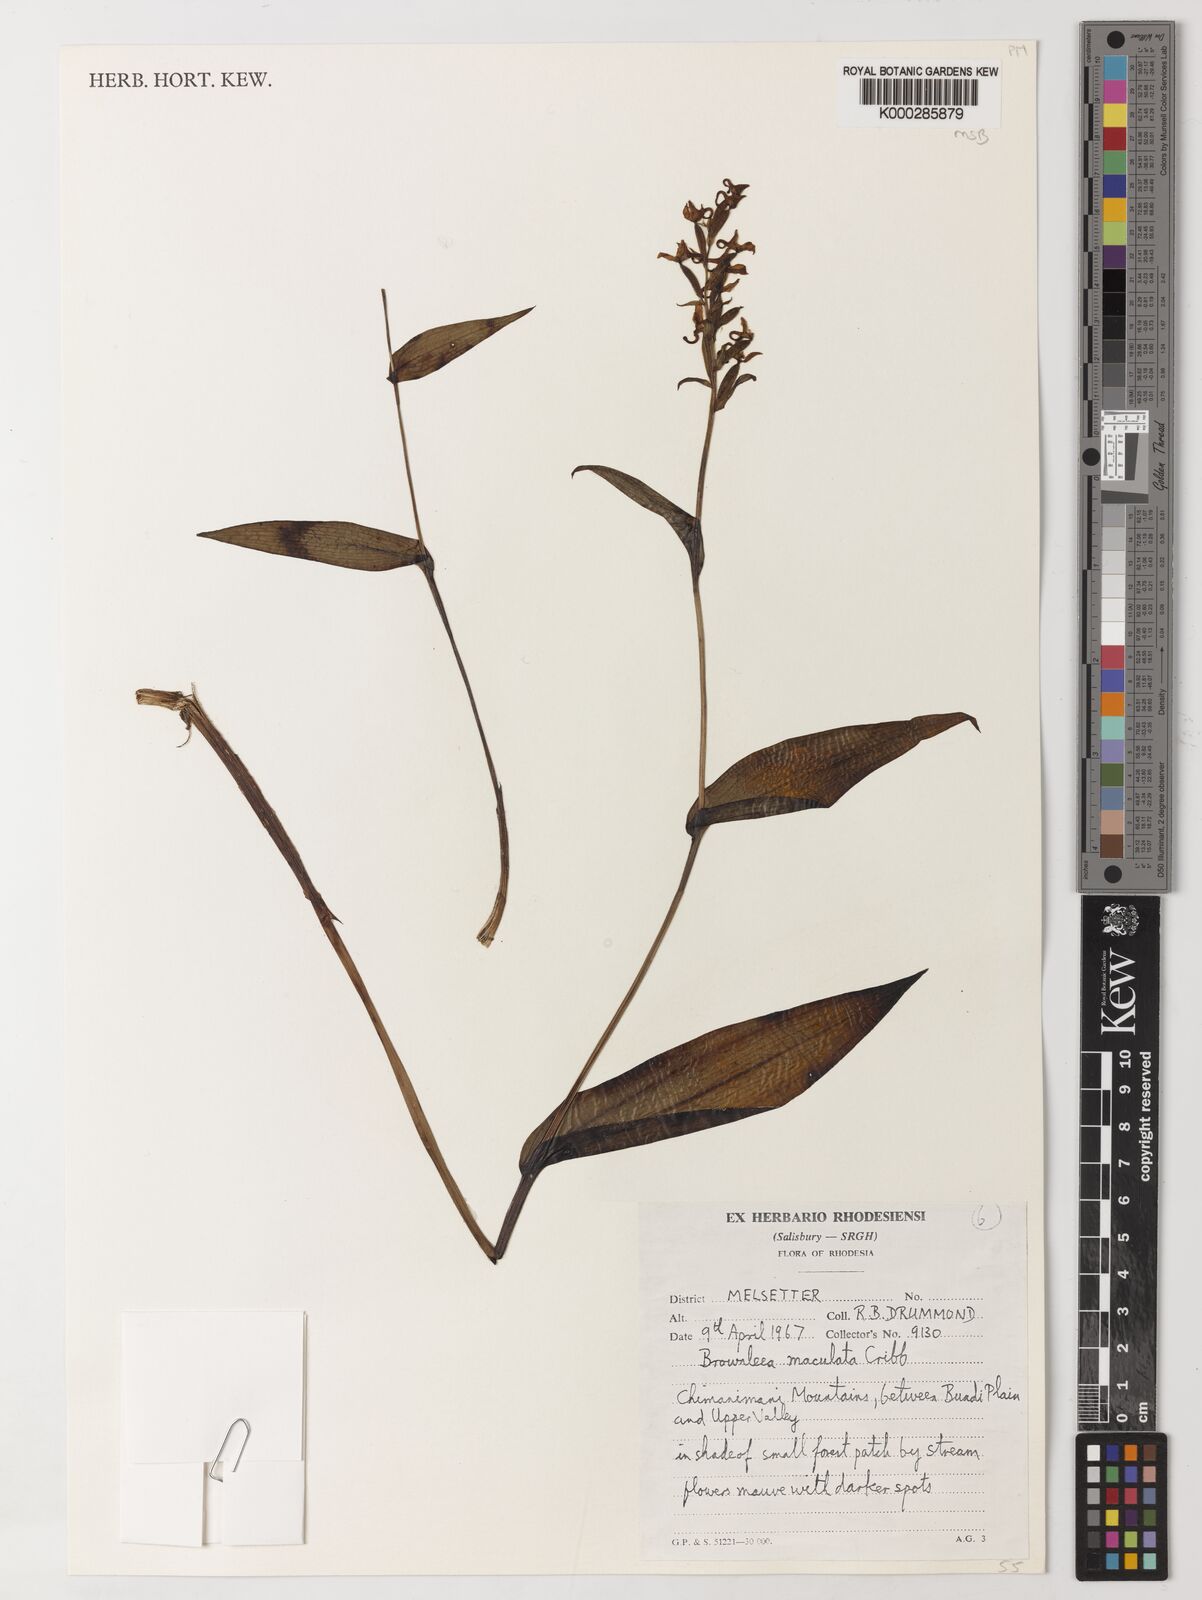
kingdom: Plantae
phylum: Tracheophyta
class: Liliopsida
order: Asparagales
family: Orchidaceae
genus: Brownleea
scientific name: Brownleea maculata
